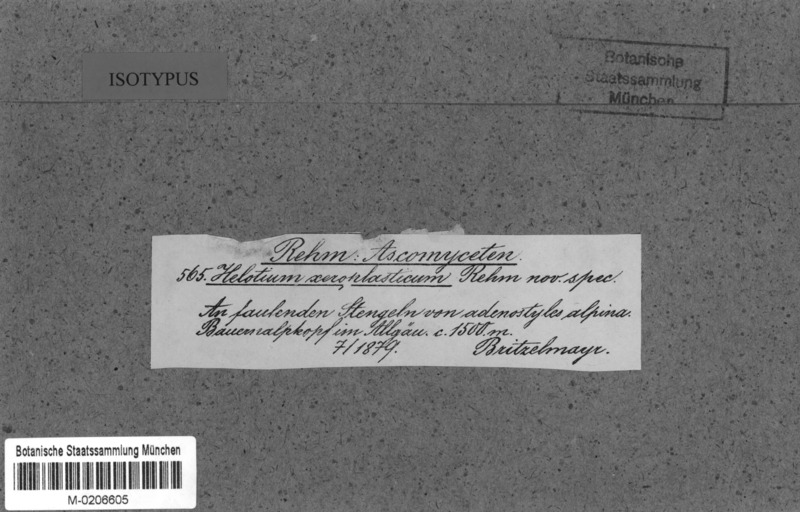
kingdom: Fungi
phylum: Ascomycota
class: Leotiomycetes
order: Helotiales
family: Pezizellaceae
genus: Pezizella
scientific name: Pezizella xeroplastica
